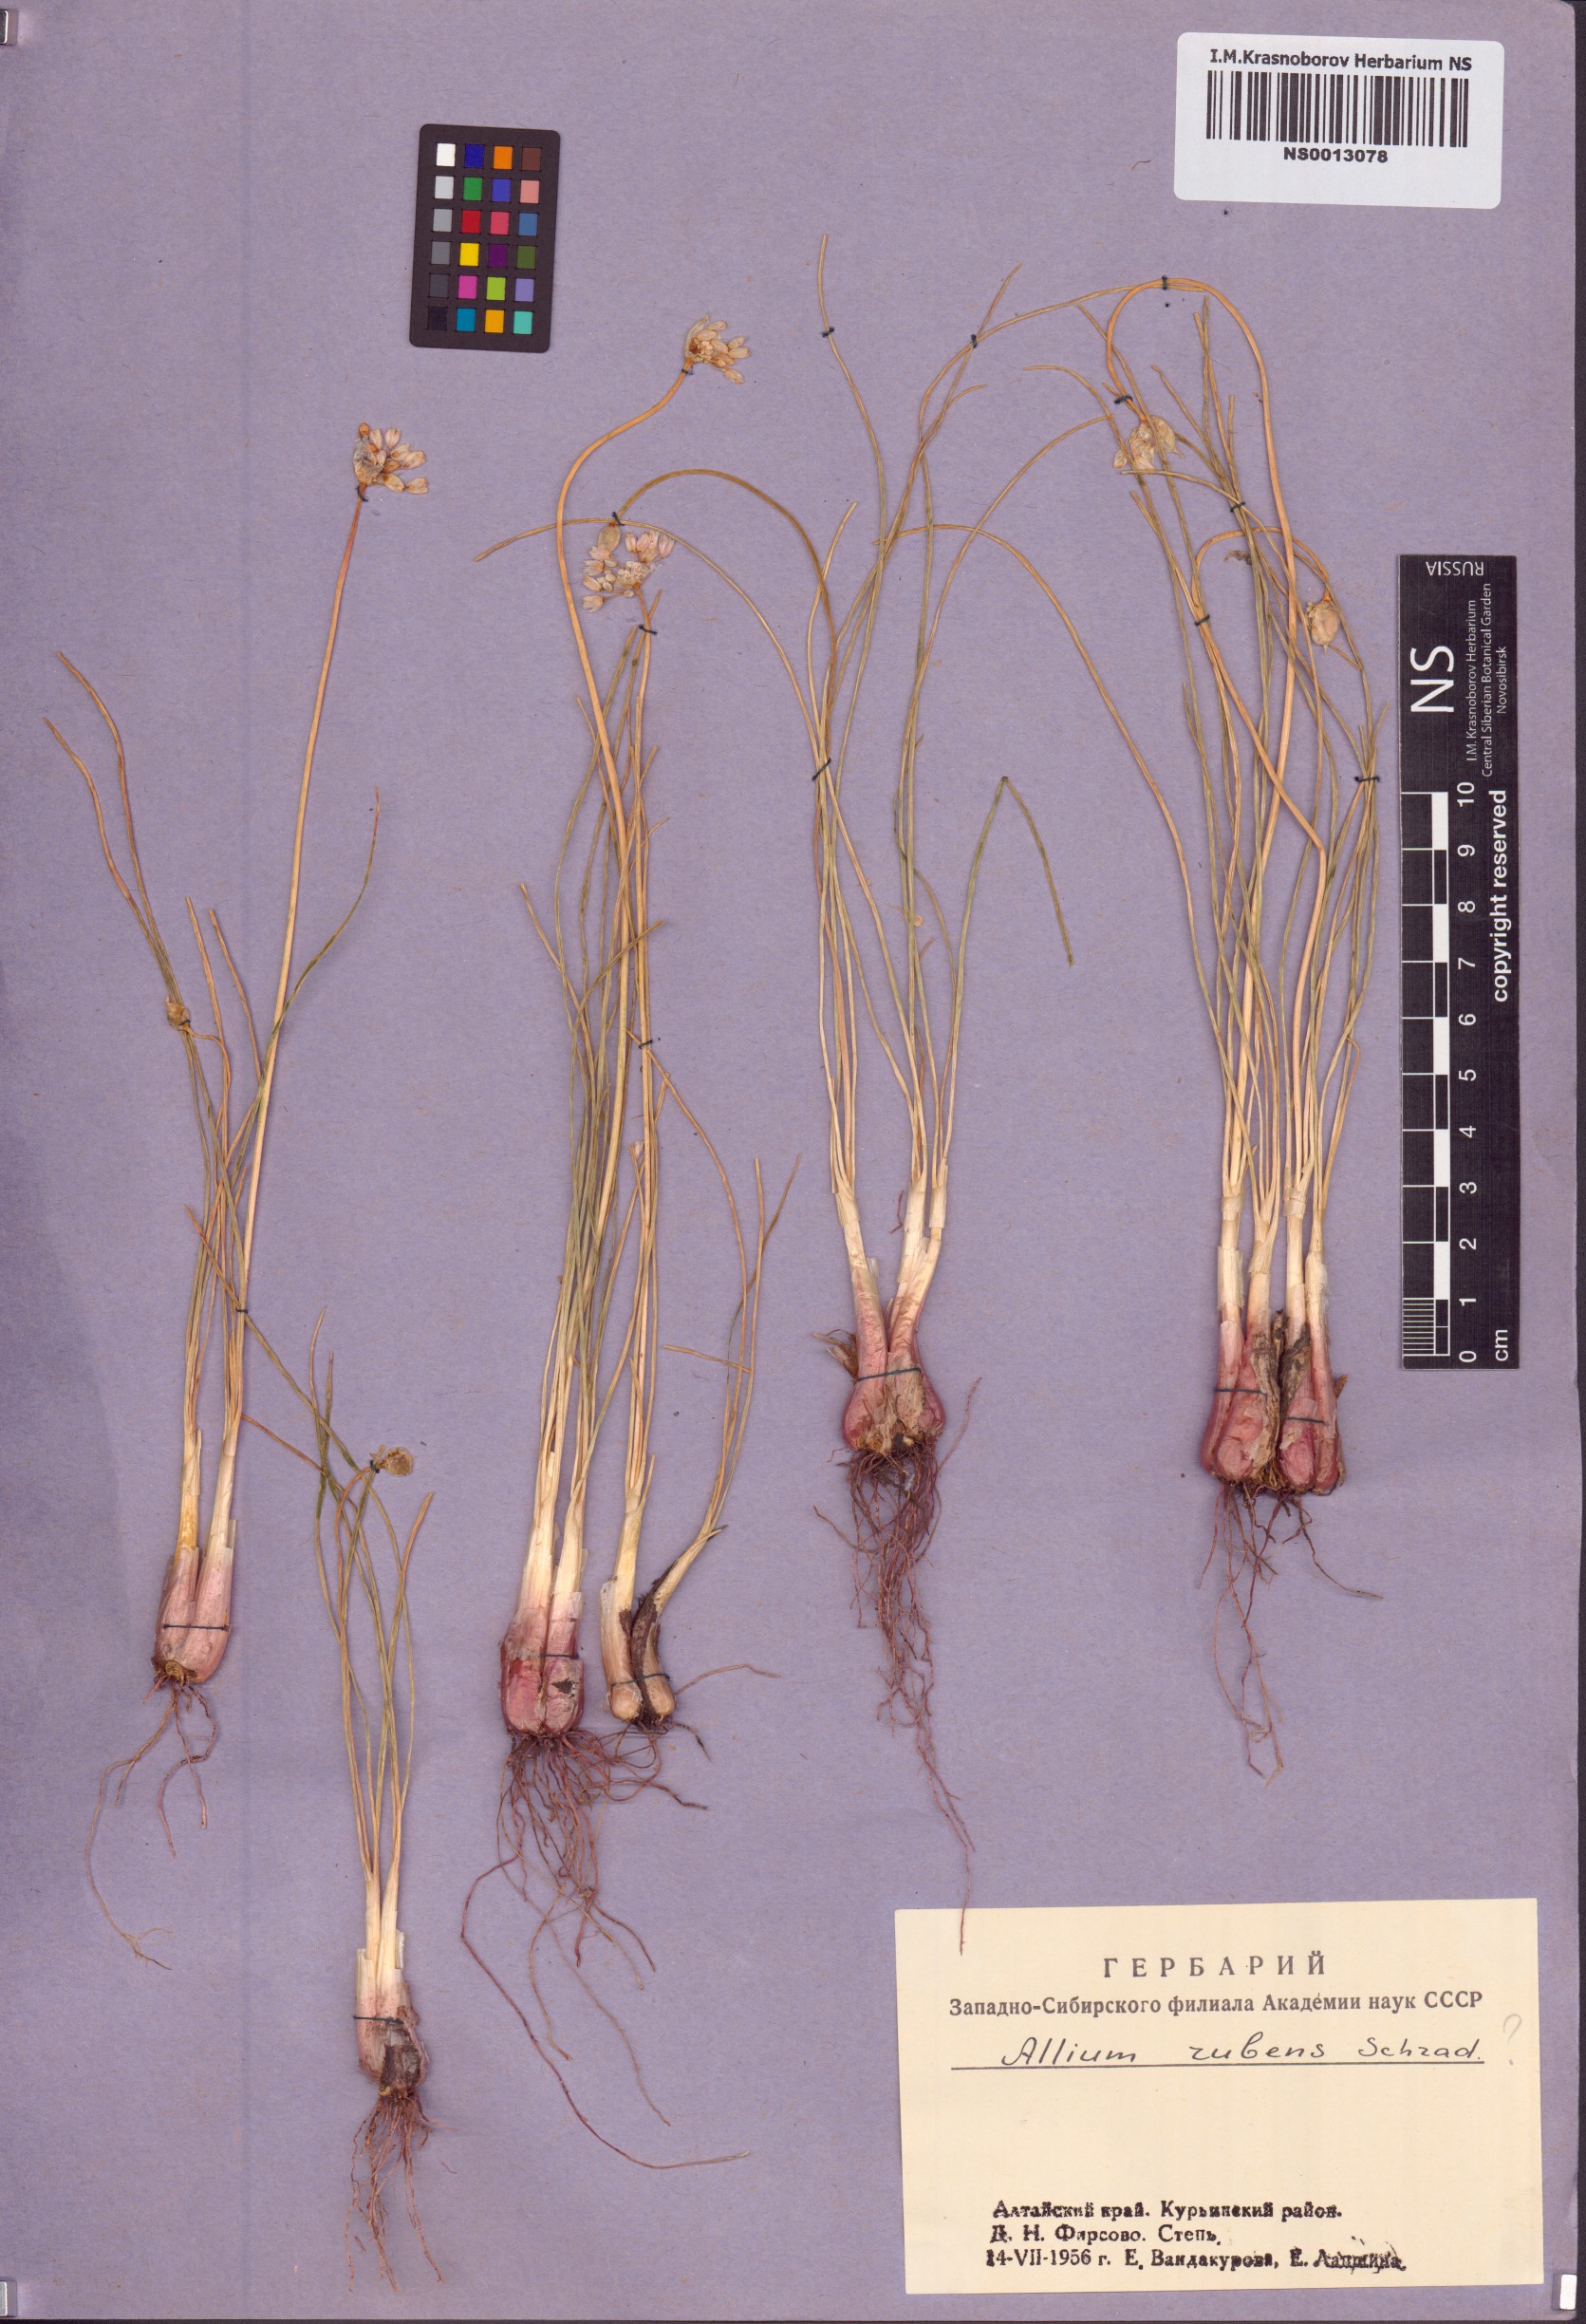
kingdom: Plantae
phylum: Tracheophyta
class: Liliopsida
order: Asparagales
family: Amaryllidaceae
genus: Allium
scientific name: Allium rubens
